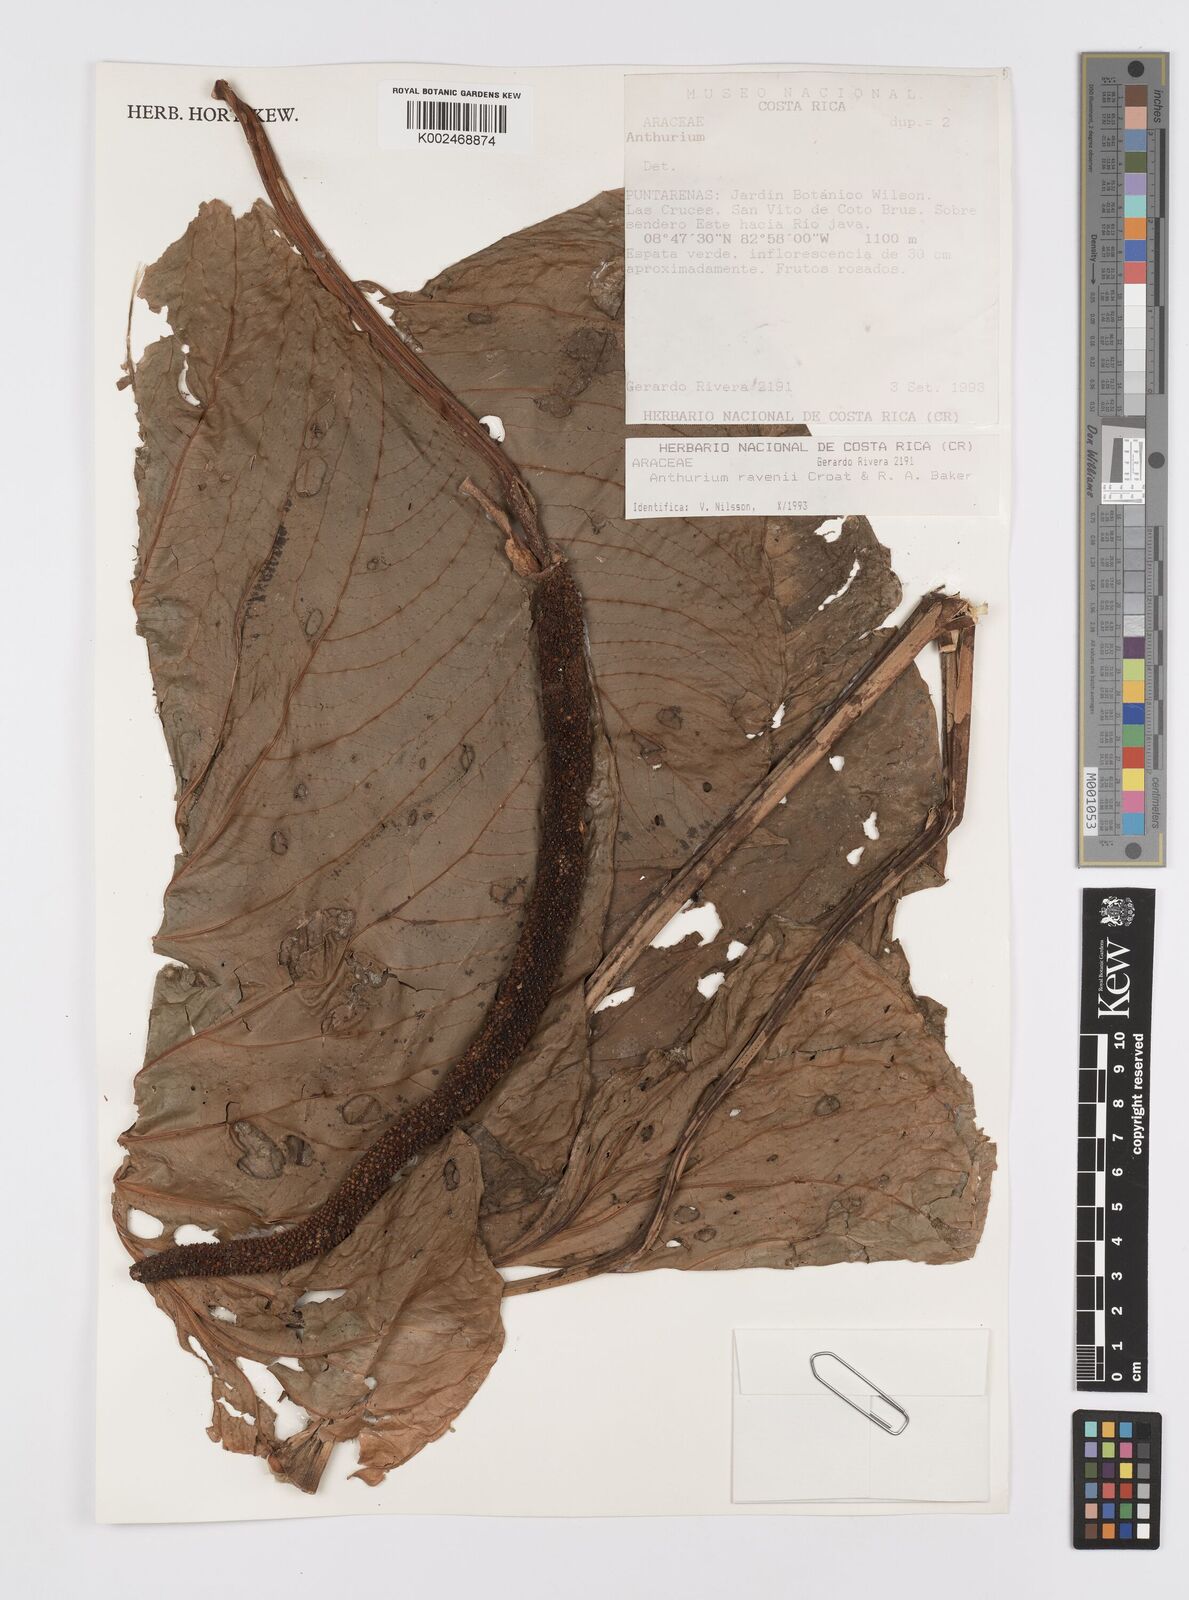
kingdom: Plantae
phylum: Tracheophyta
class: Liliopsida
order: Alismatales
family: Araceae
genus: Anthurium
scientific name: Anthurium ravenii
